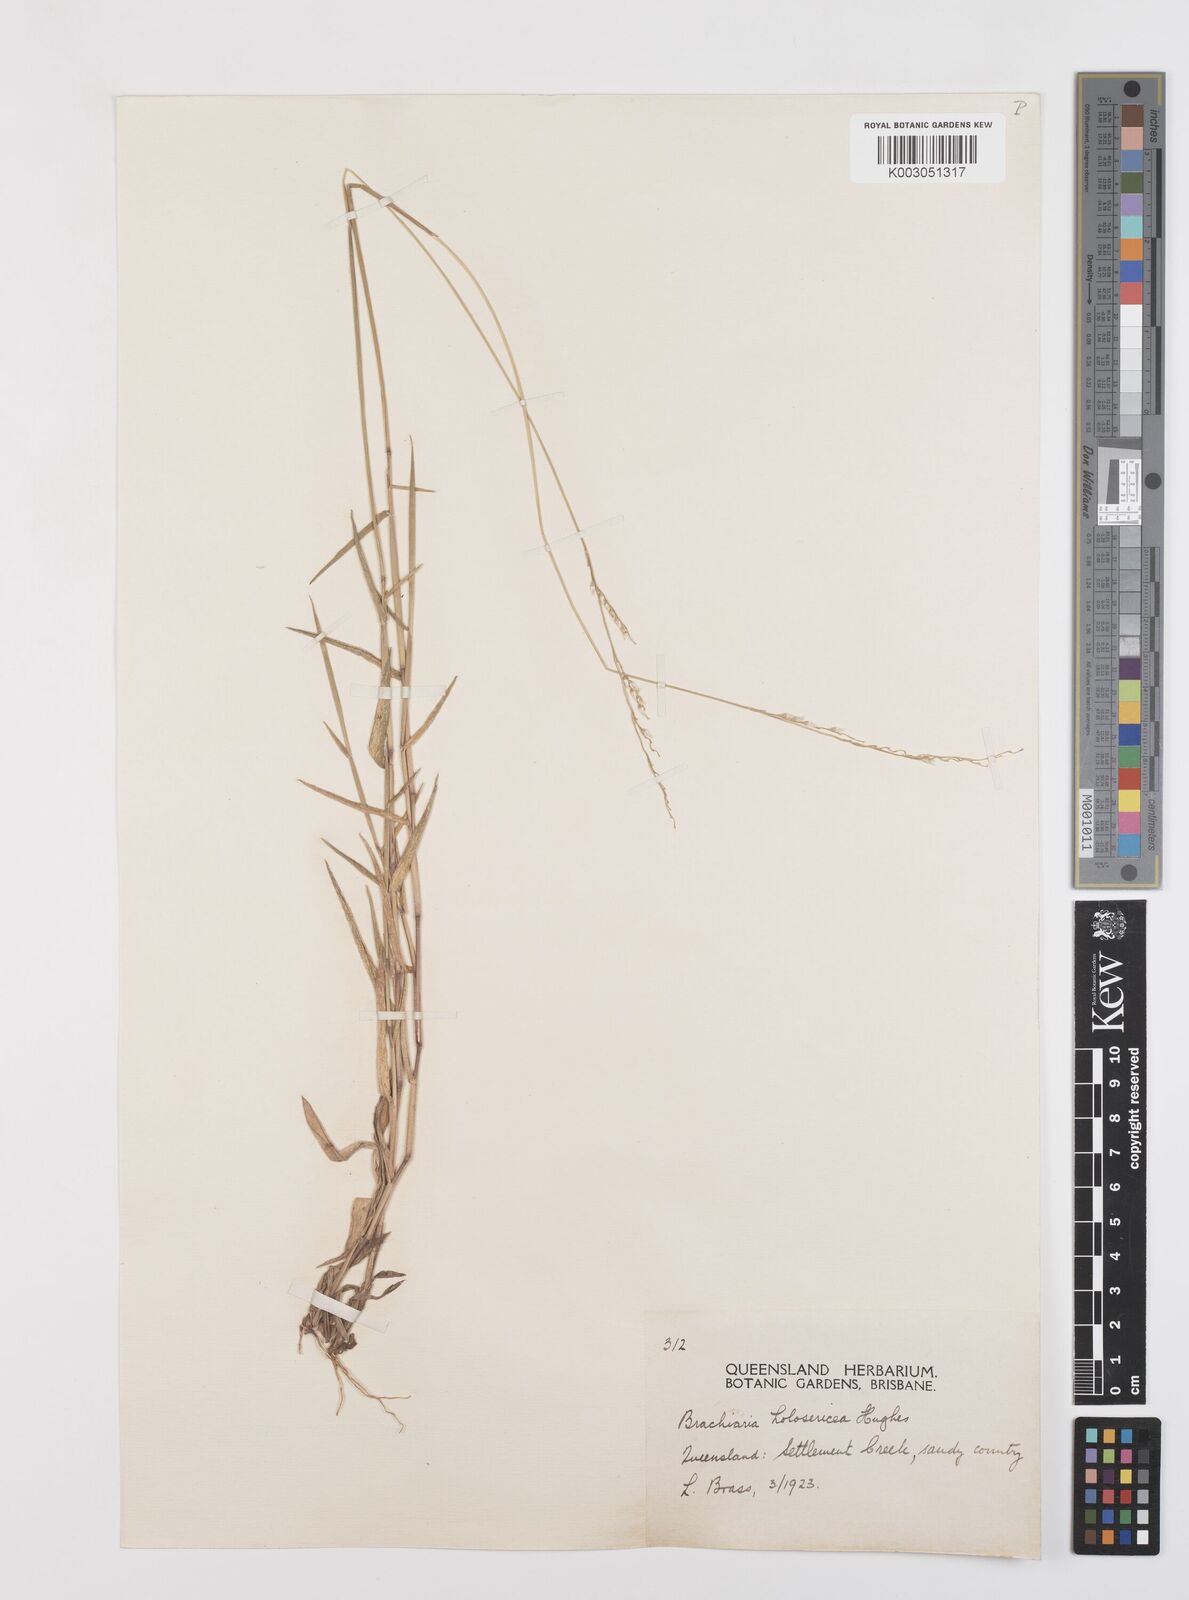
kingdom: Plantae
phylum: Tracheophyta
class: Liliopsida
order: Poales
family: Poaceae
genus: Urochloa
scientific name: Urochloa holosericea
